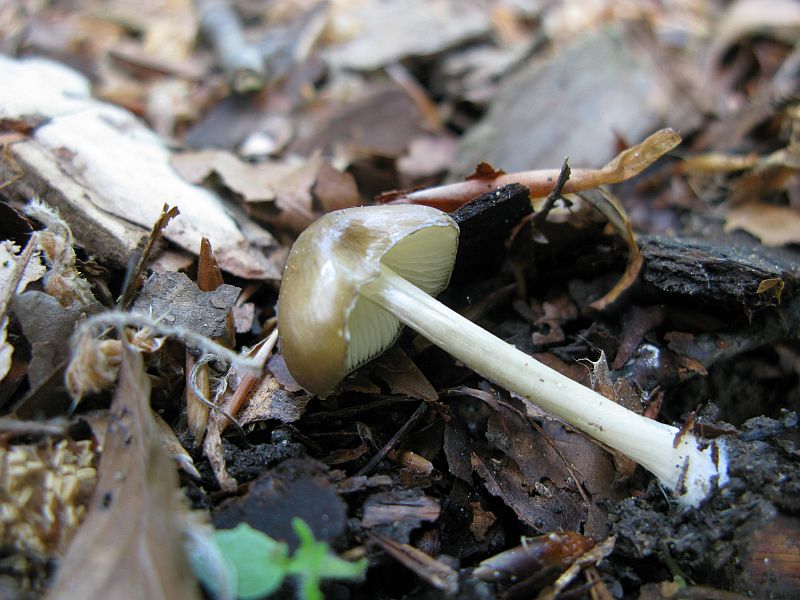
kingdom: Fungi
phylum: Basidiomycota
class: Agaricomycetes
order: Agaricales
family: Porotheleaceae
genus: Hydropodia
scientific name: Hydropodia subalpina
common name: vår-fnugfod
